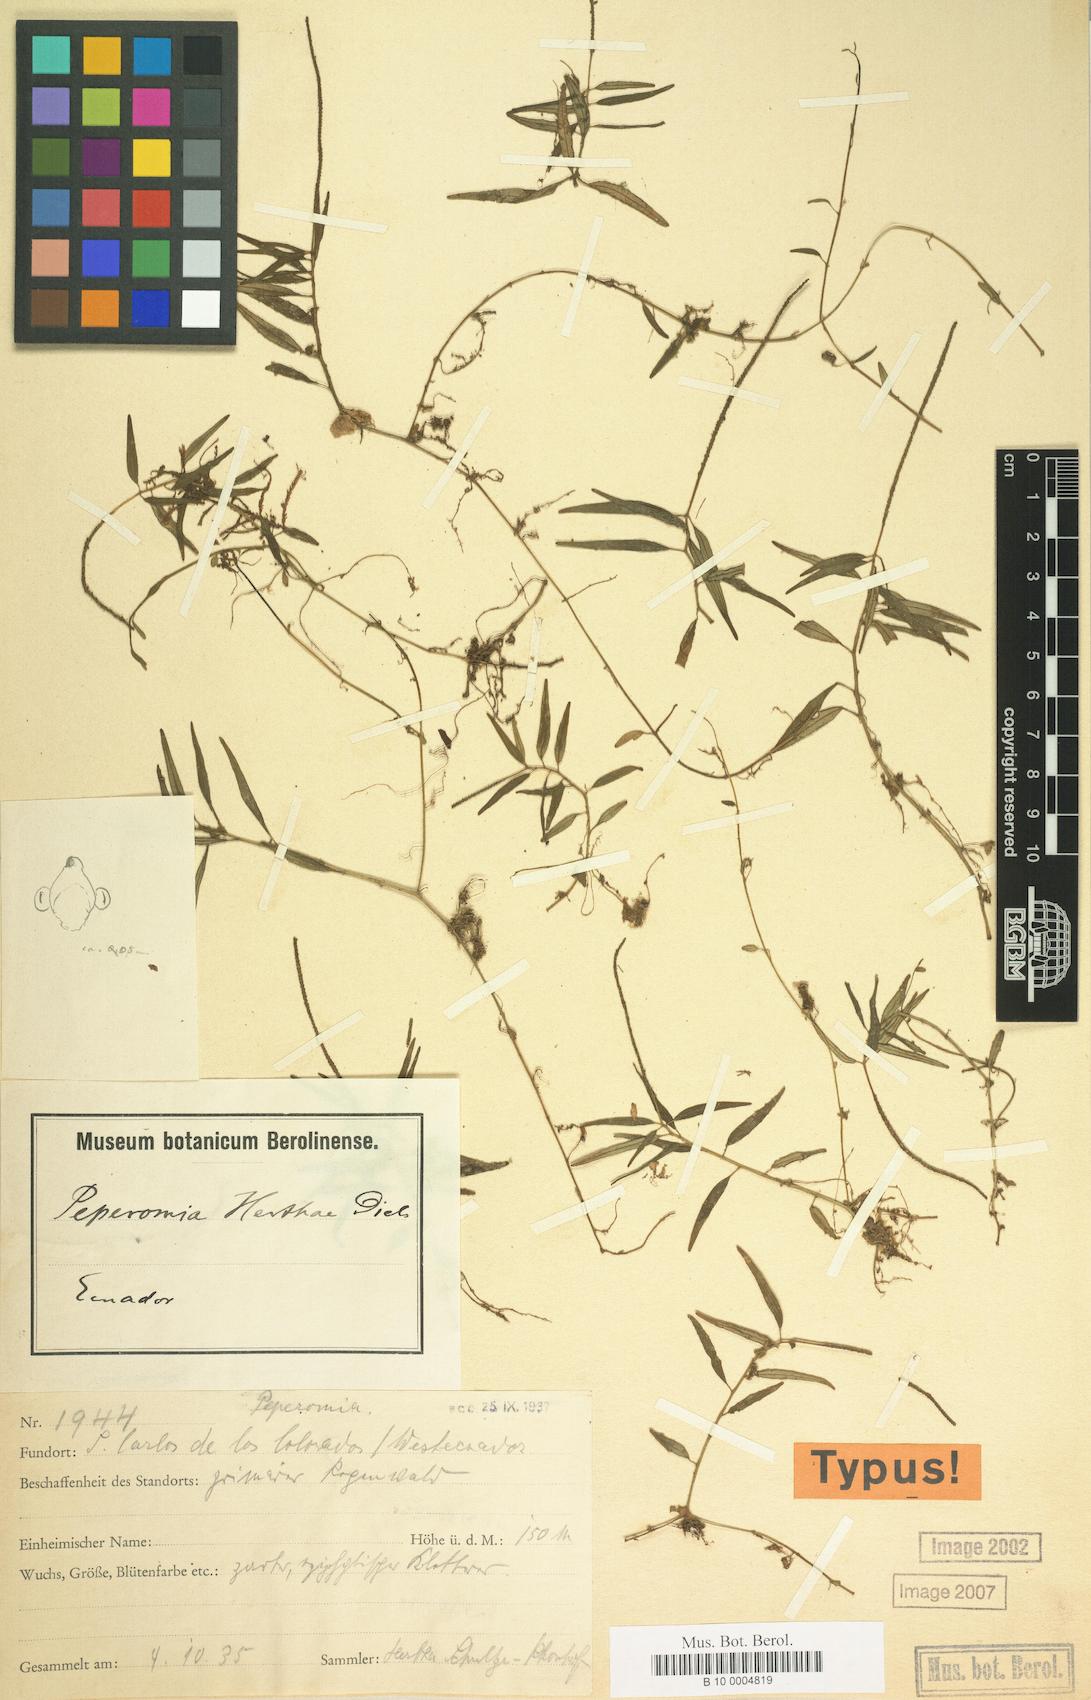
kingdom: Plantae
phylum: Tracheophyta
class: Magnoliopsida
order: Piperales
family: Piperaceae
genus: Peperomia
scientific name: Peperomia jamesoniana
